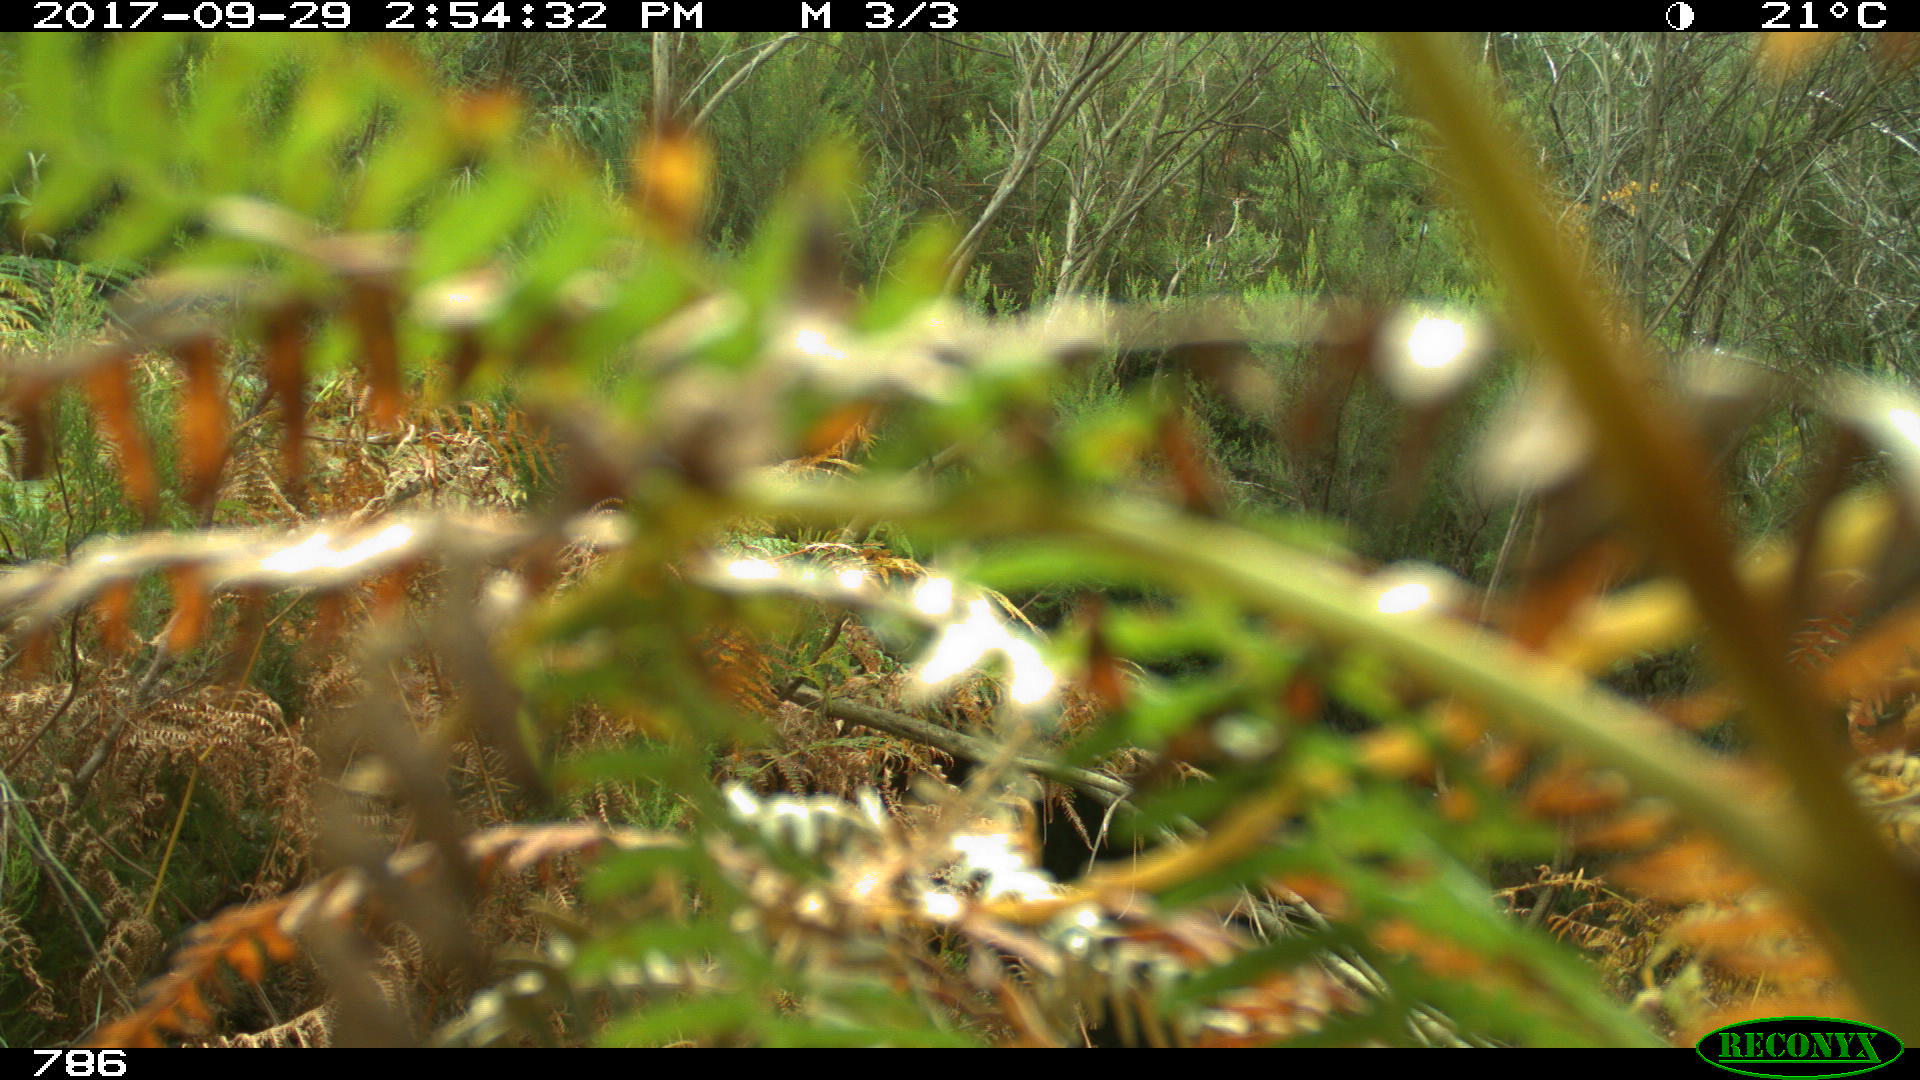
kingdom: Animalia
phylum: Chordata
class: Mammalia
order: Perissodactyla
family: Equidae
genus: Equus
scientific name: Equus caballus
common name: Horse
